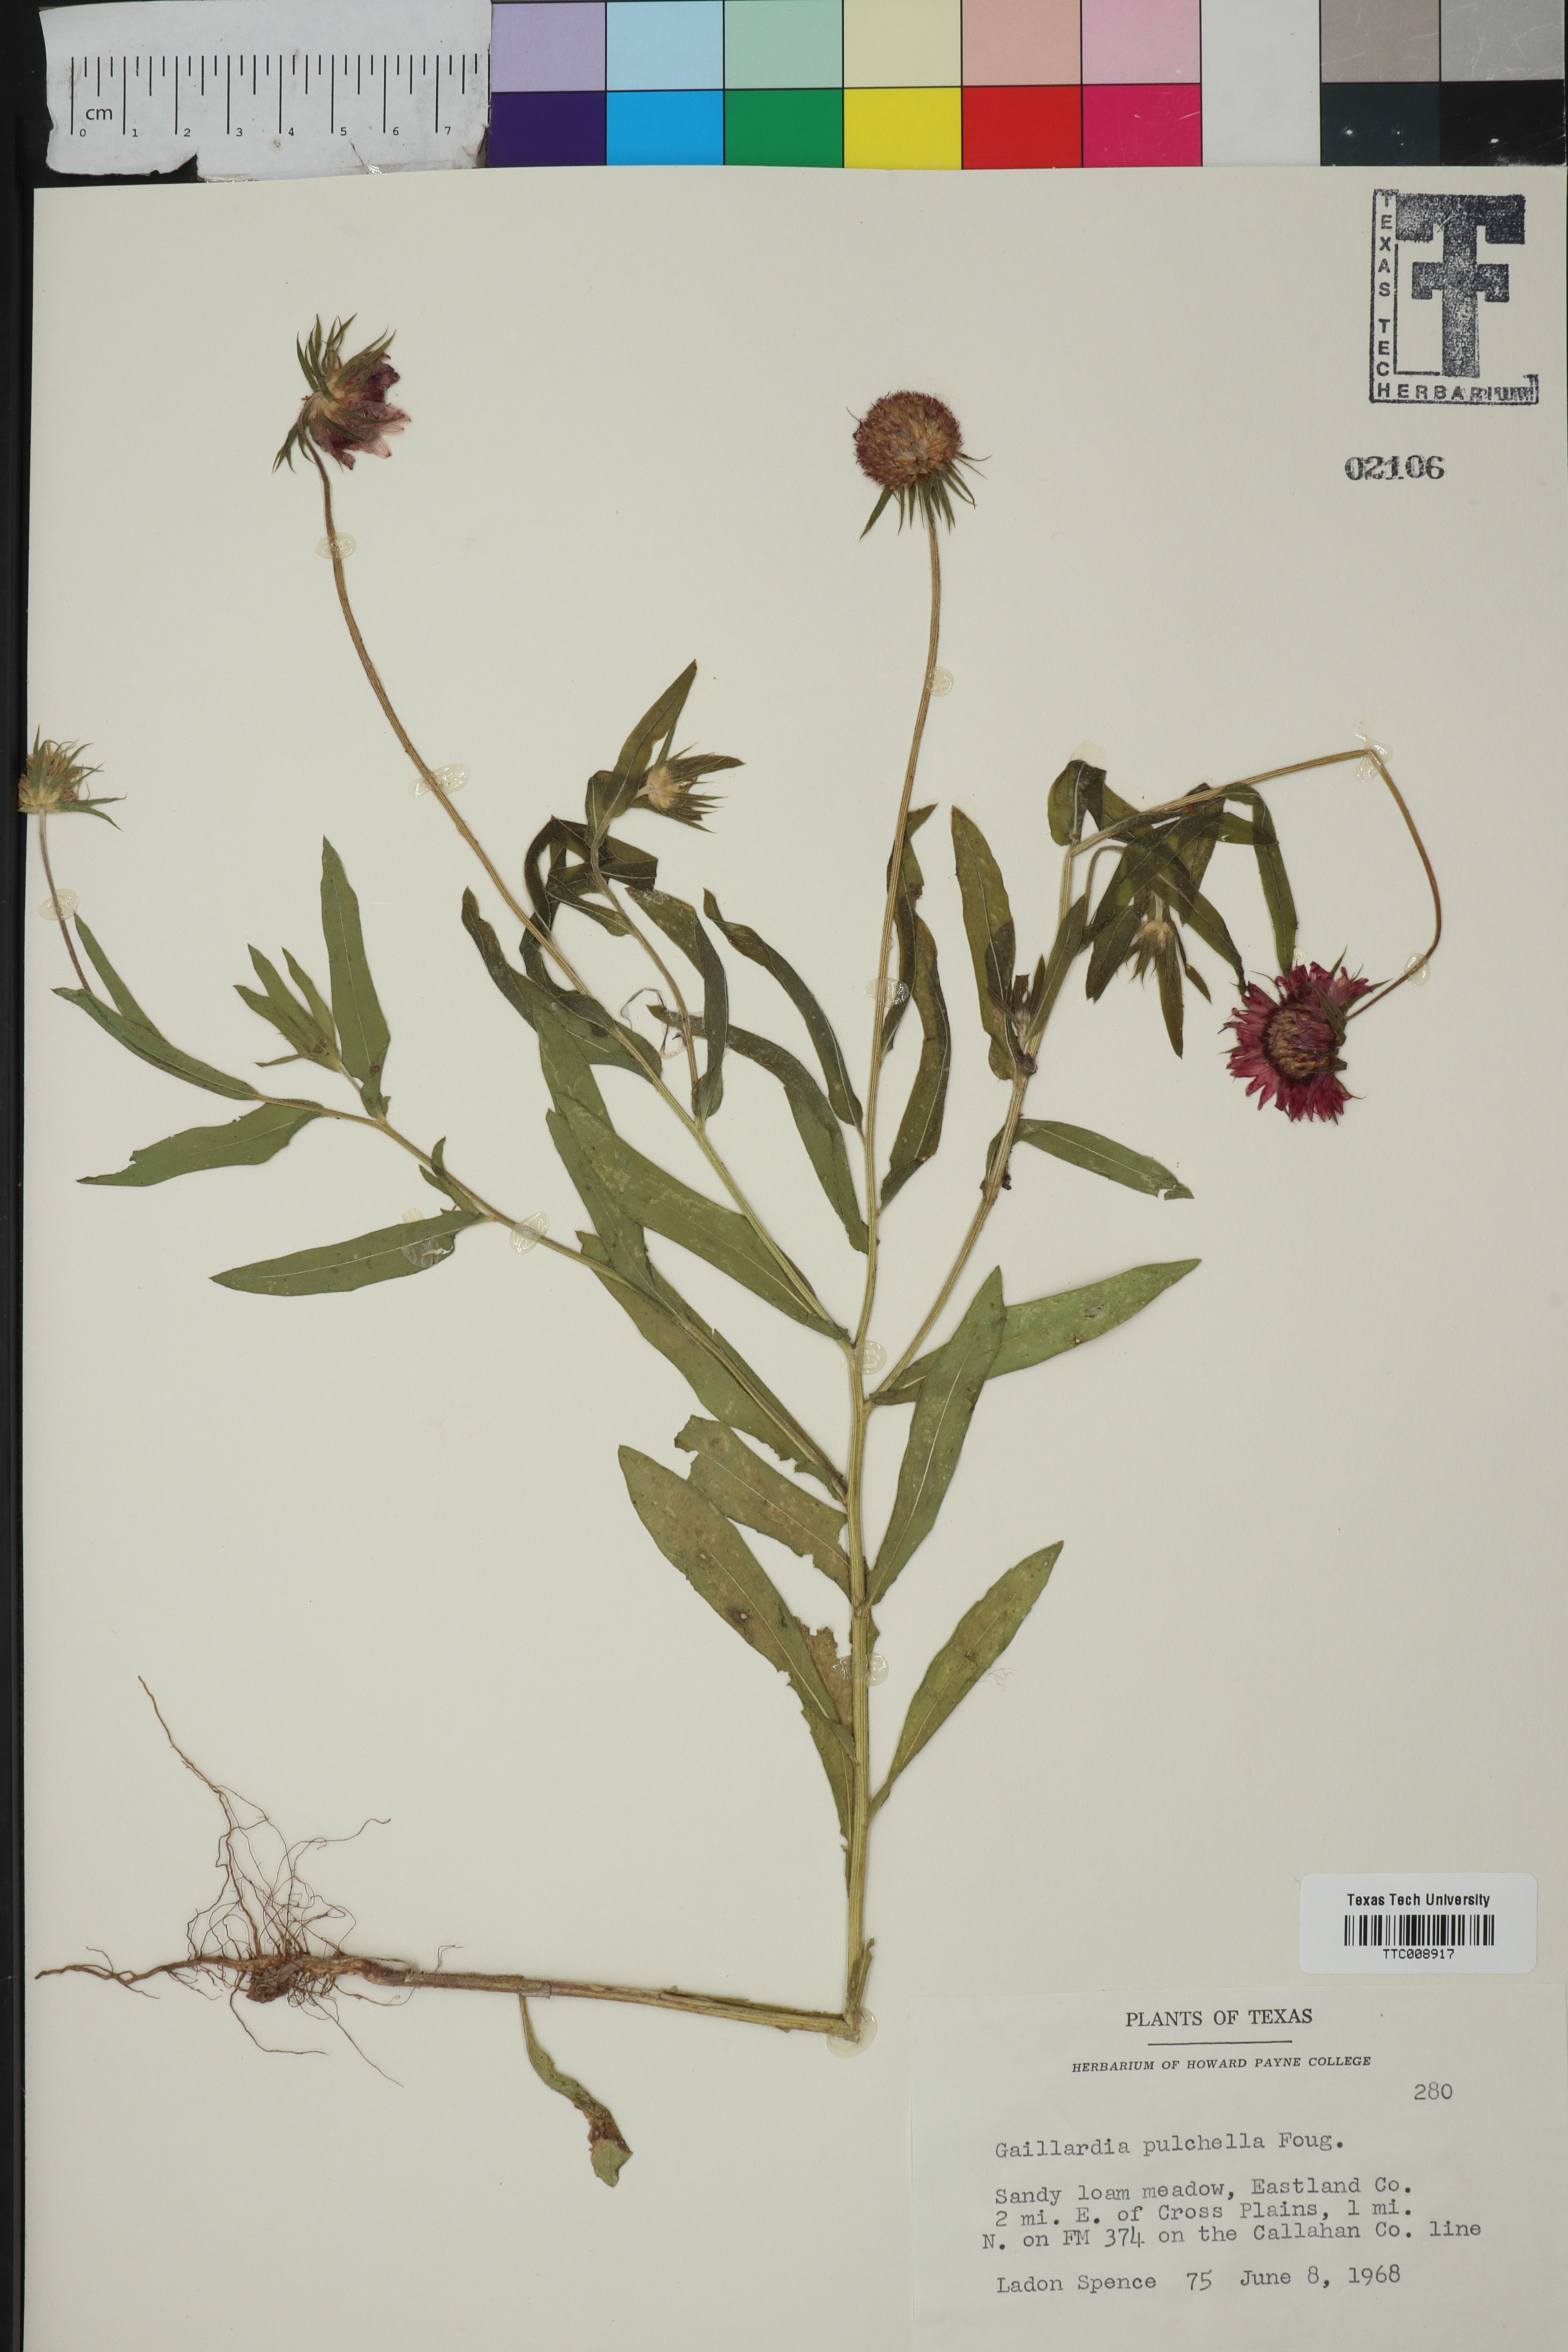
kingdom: Plantae
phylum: Tracheophyta
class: Magnoliopsida
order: Asterales
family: Asteraceae
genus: Gaillardia
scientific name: Gaillardia pulchella
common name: Firewheel
